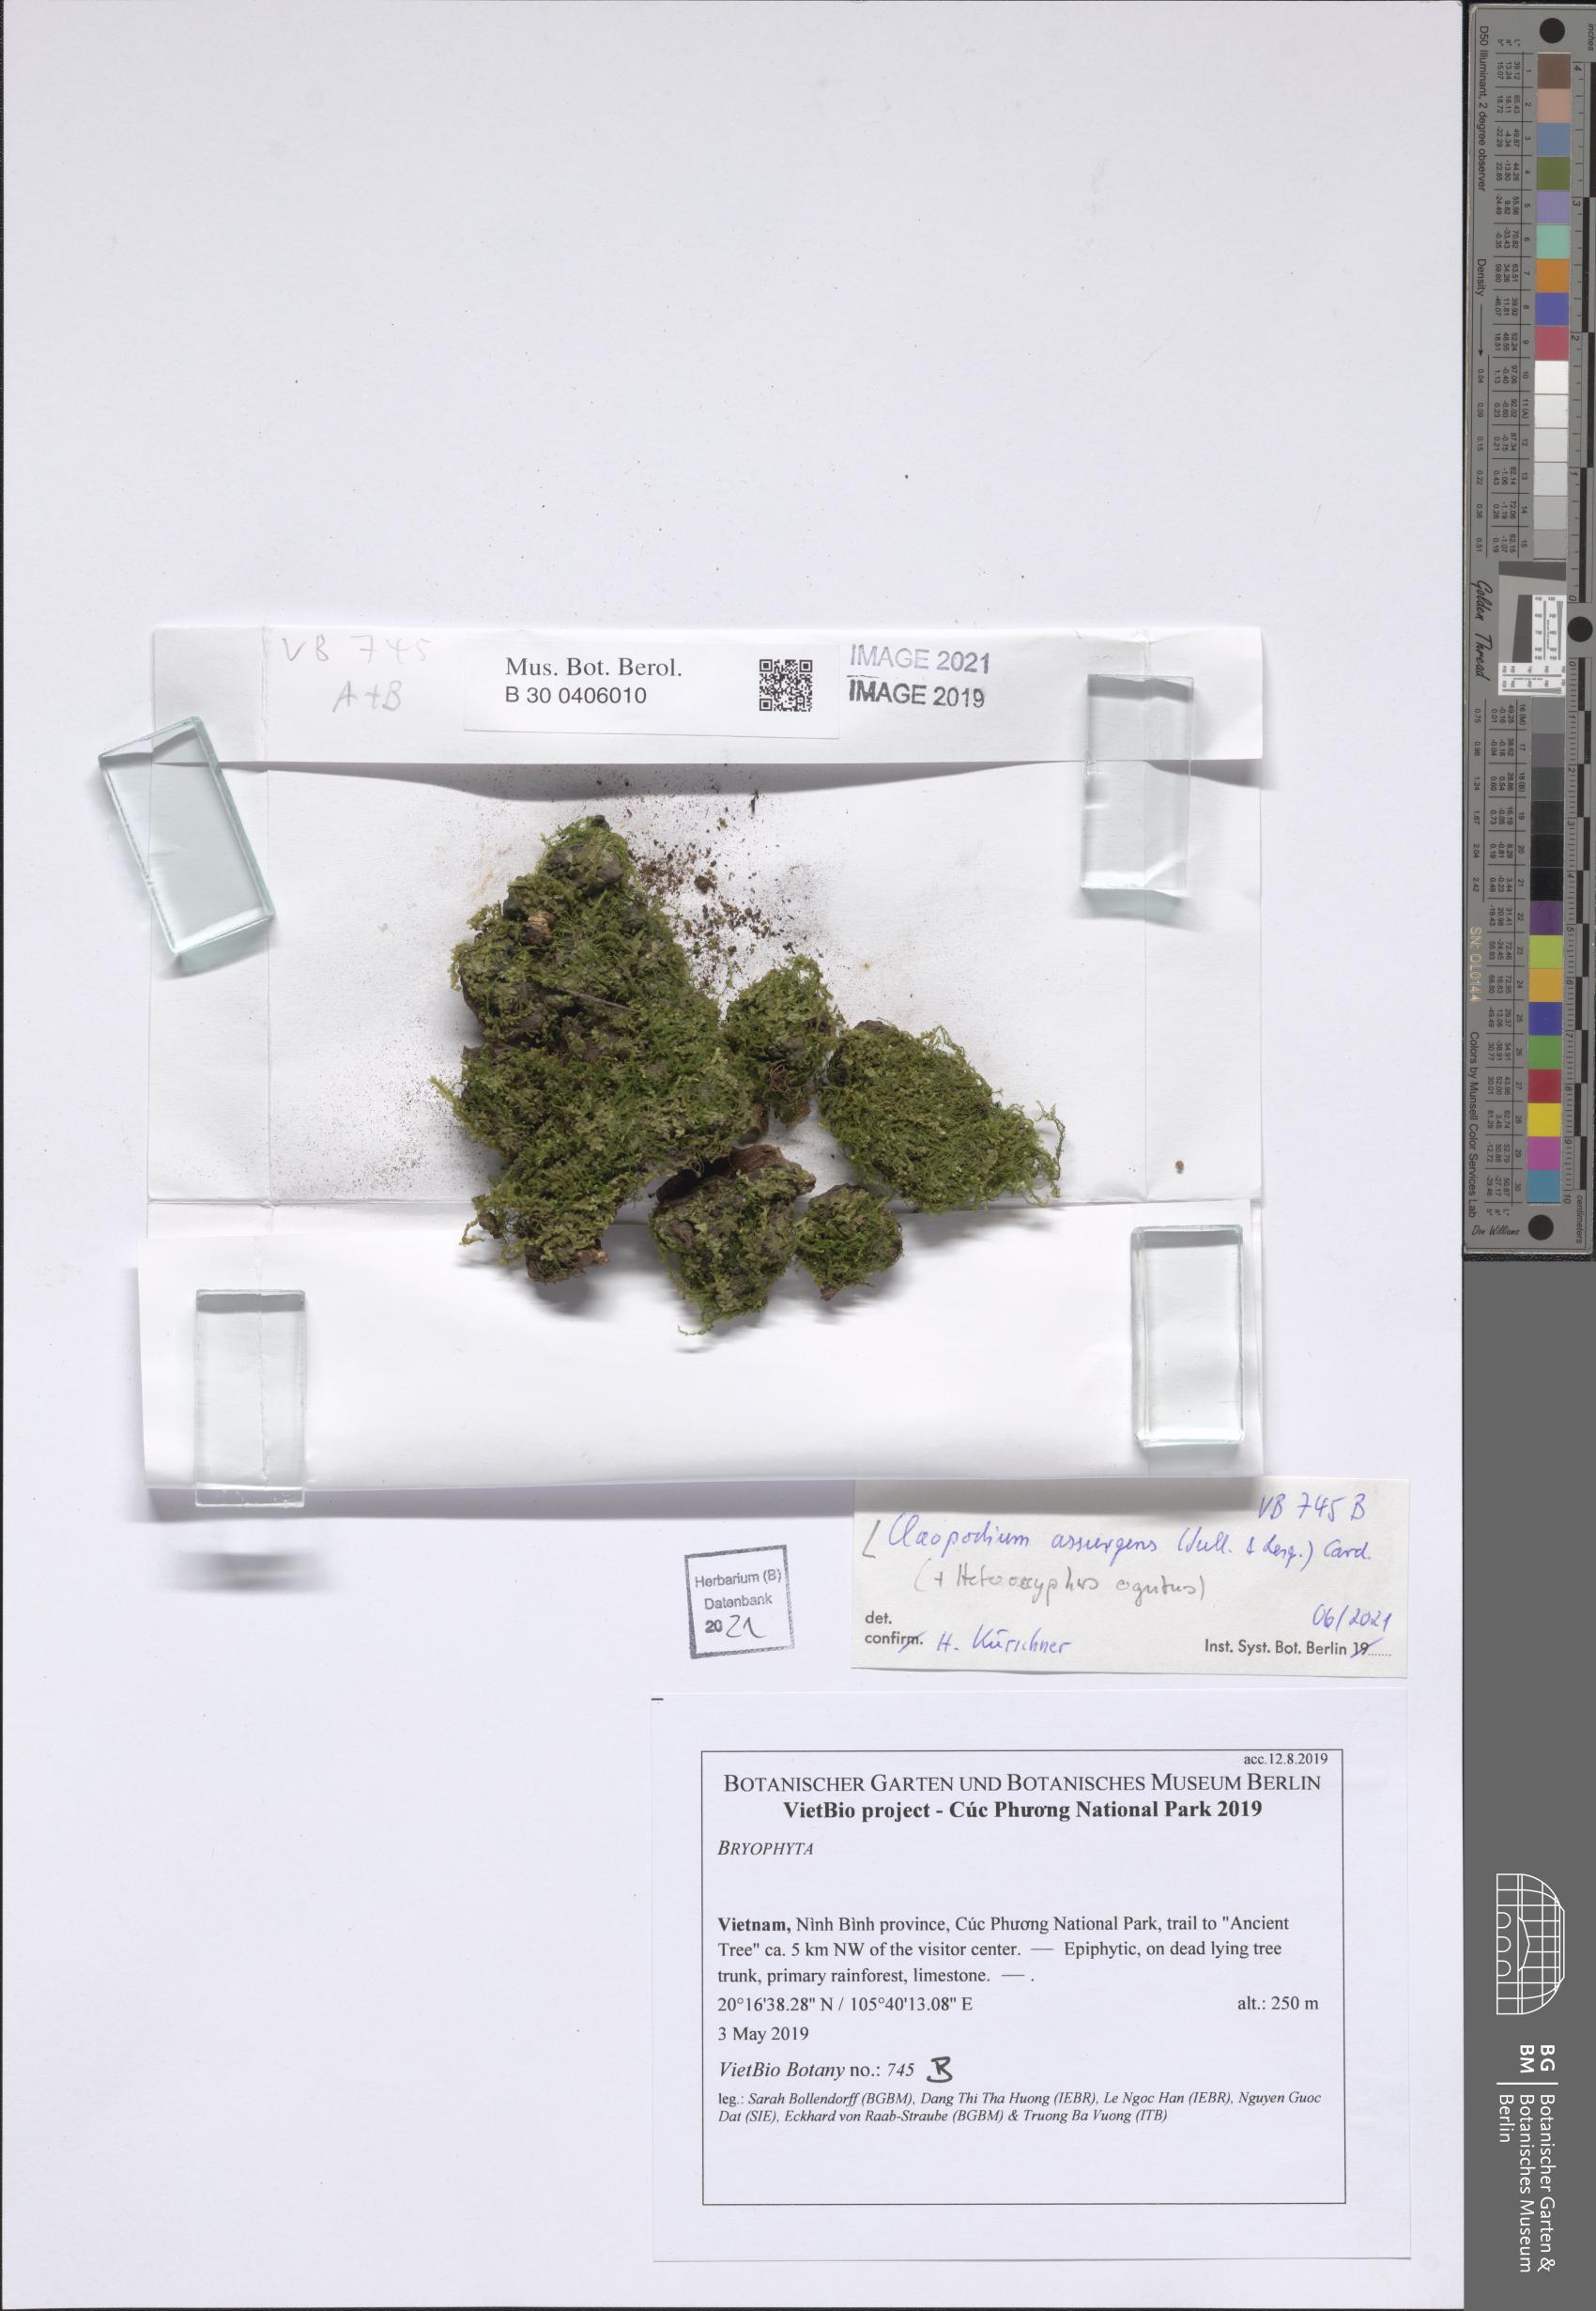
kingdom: Plantae
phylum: Bryophyta
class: Bryopsida
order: Hypnales
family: Brachytheciaceae
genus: Claopodium
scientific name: Claopodium assurgens
